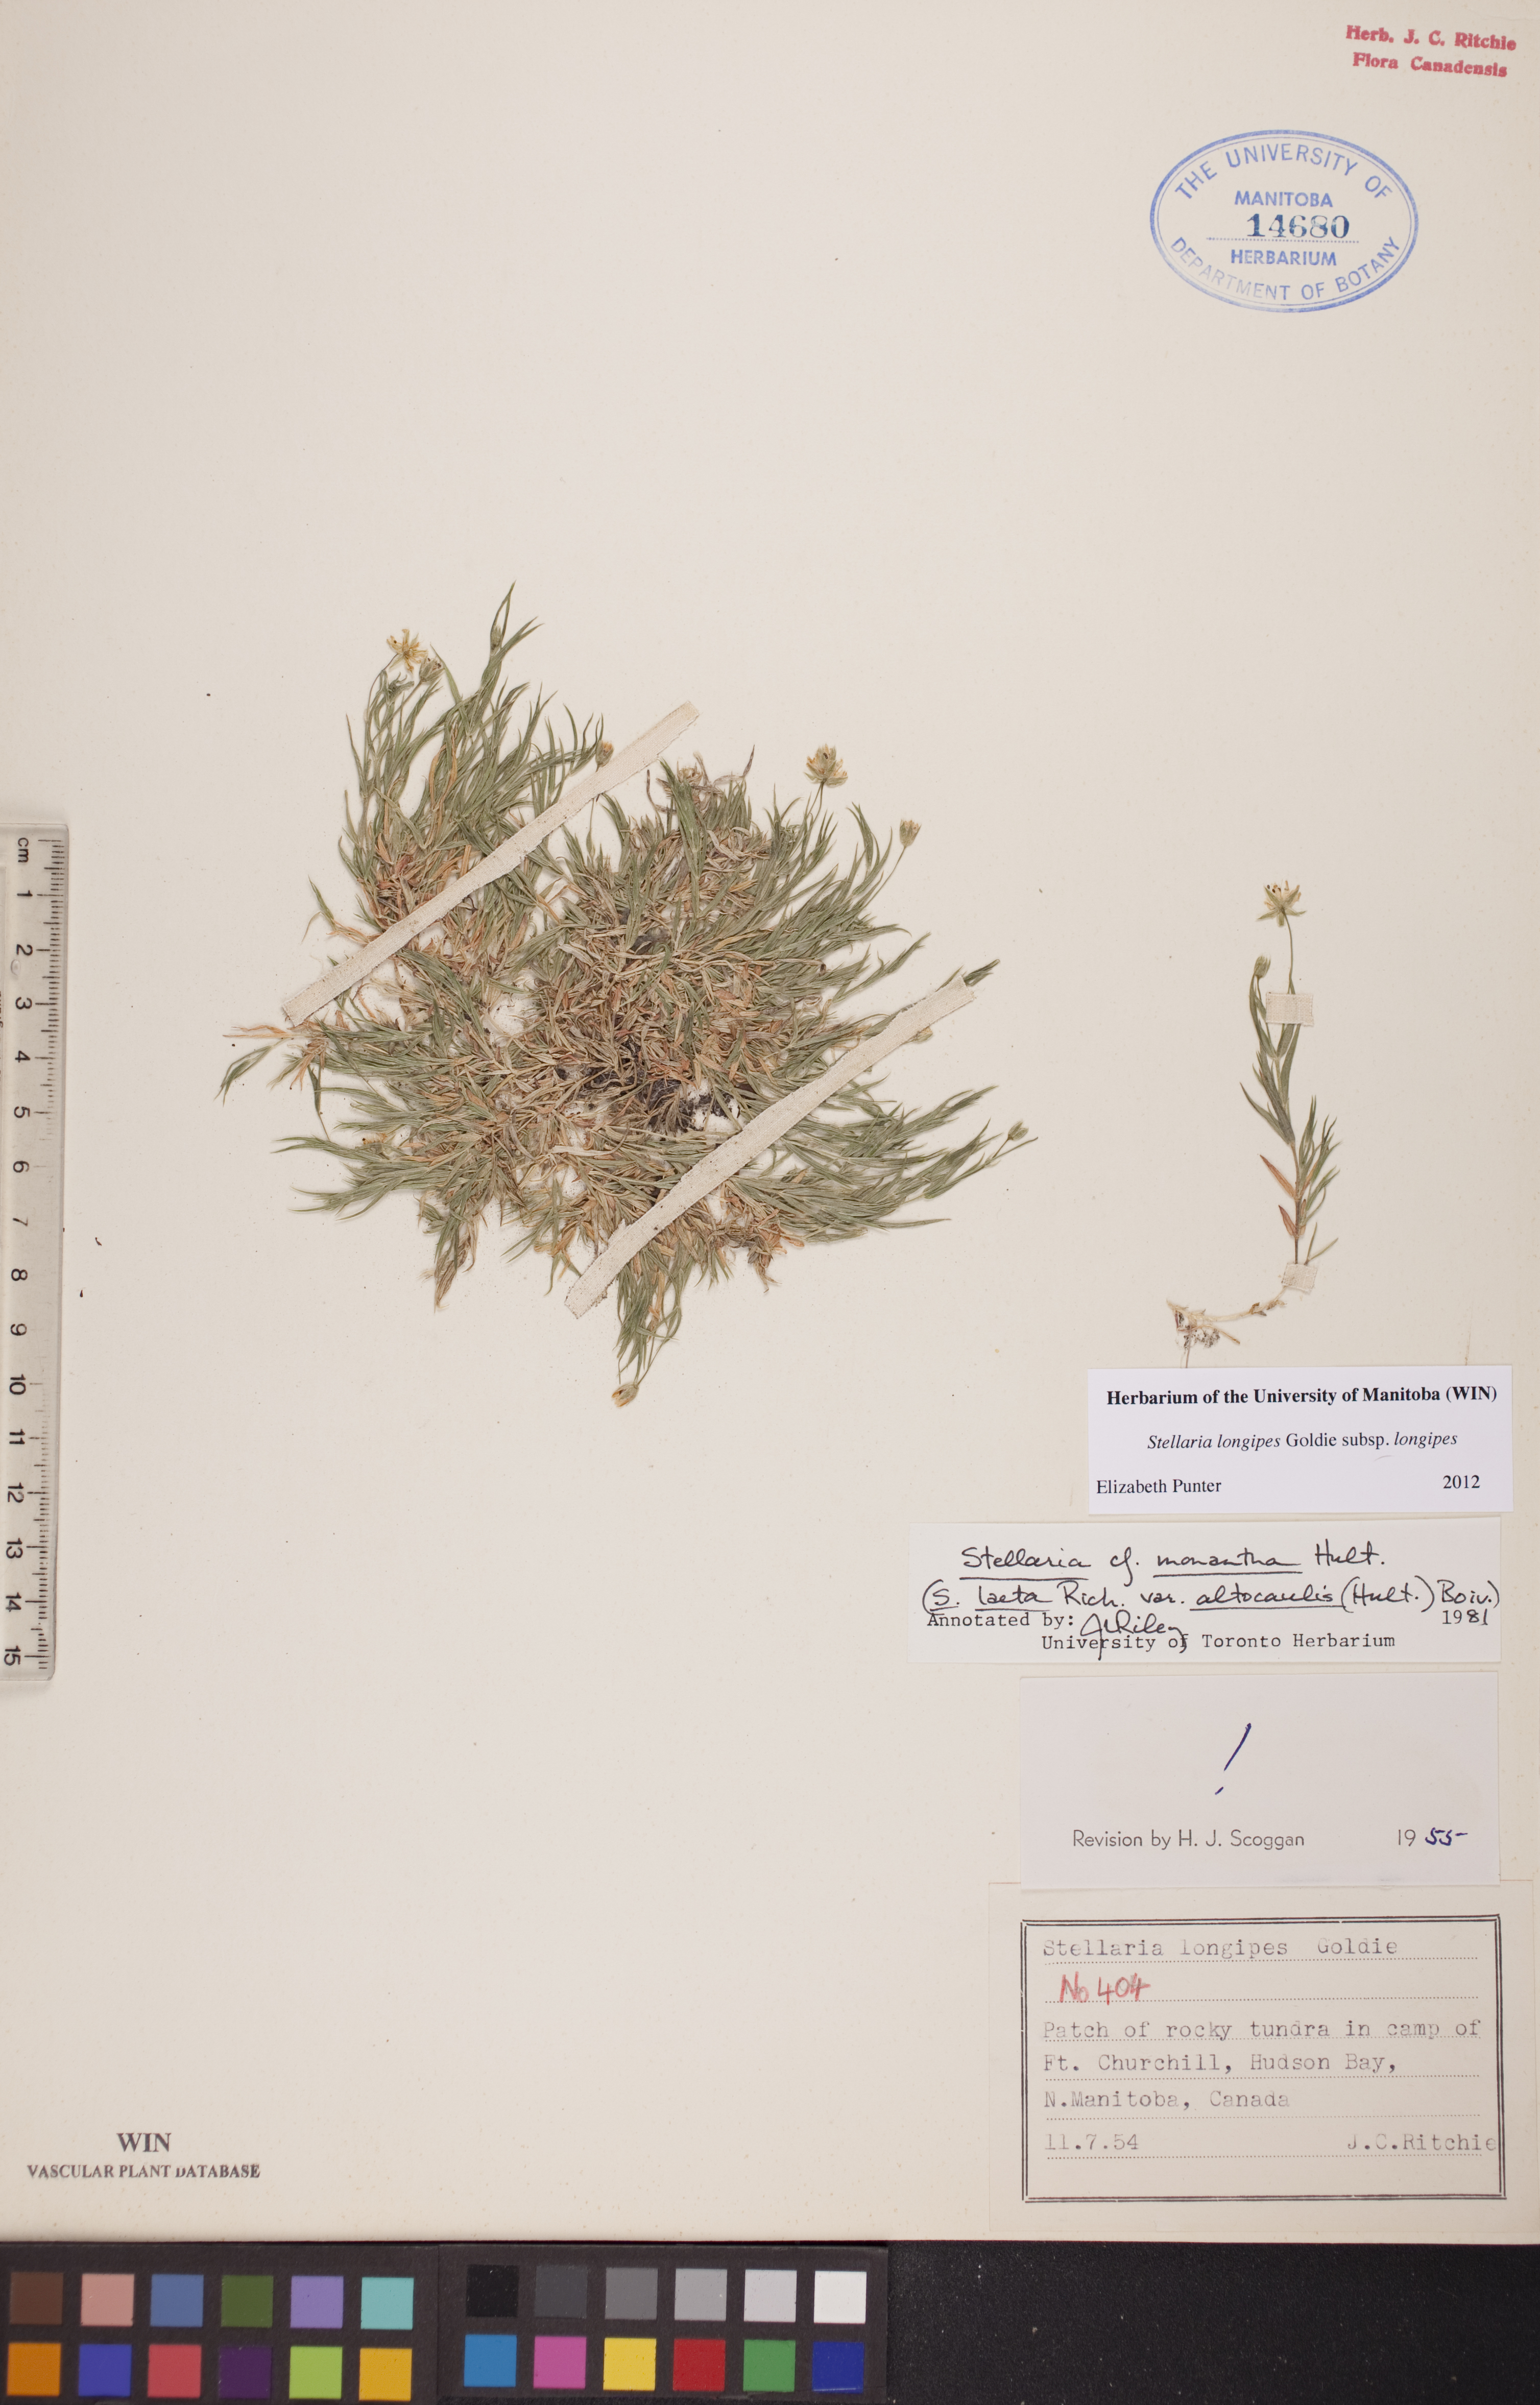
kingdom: Plantae
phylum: Tracheophyta
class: Magnoliopsida
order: Caryophyllales
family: Caryophyllaceae
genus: Stellaria
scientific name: Stellaria longipes
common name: Goldie's starwort
